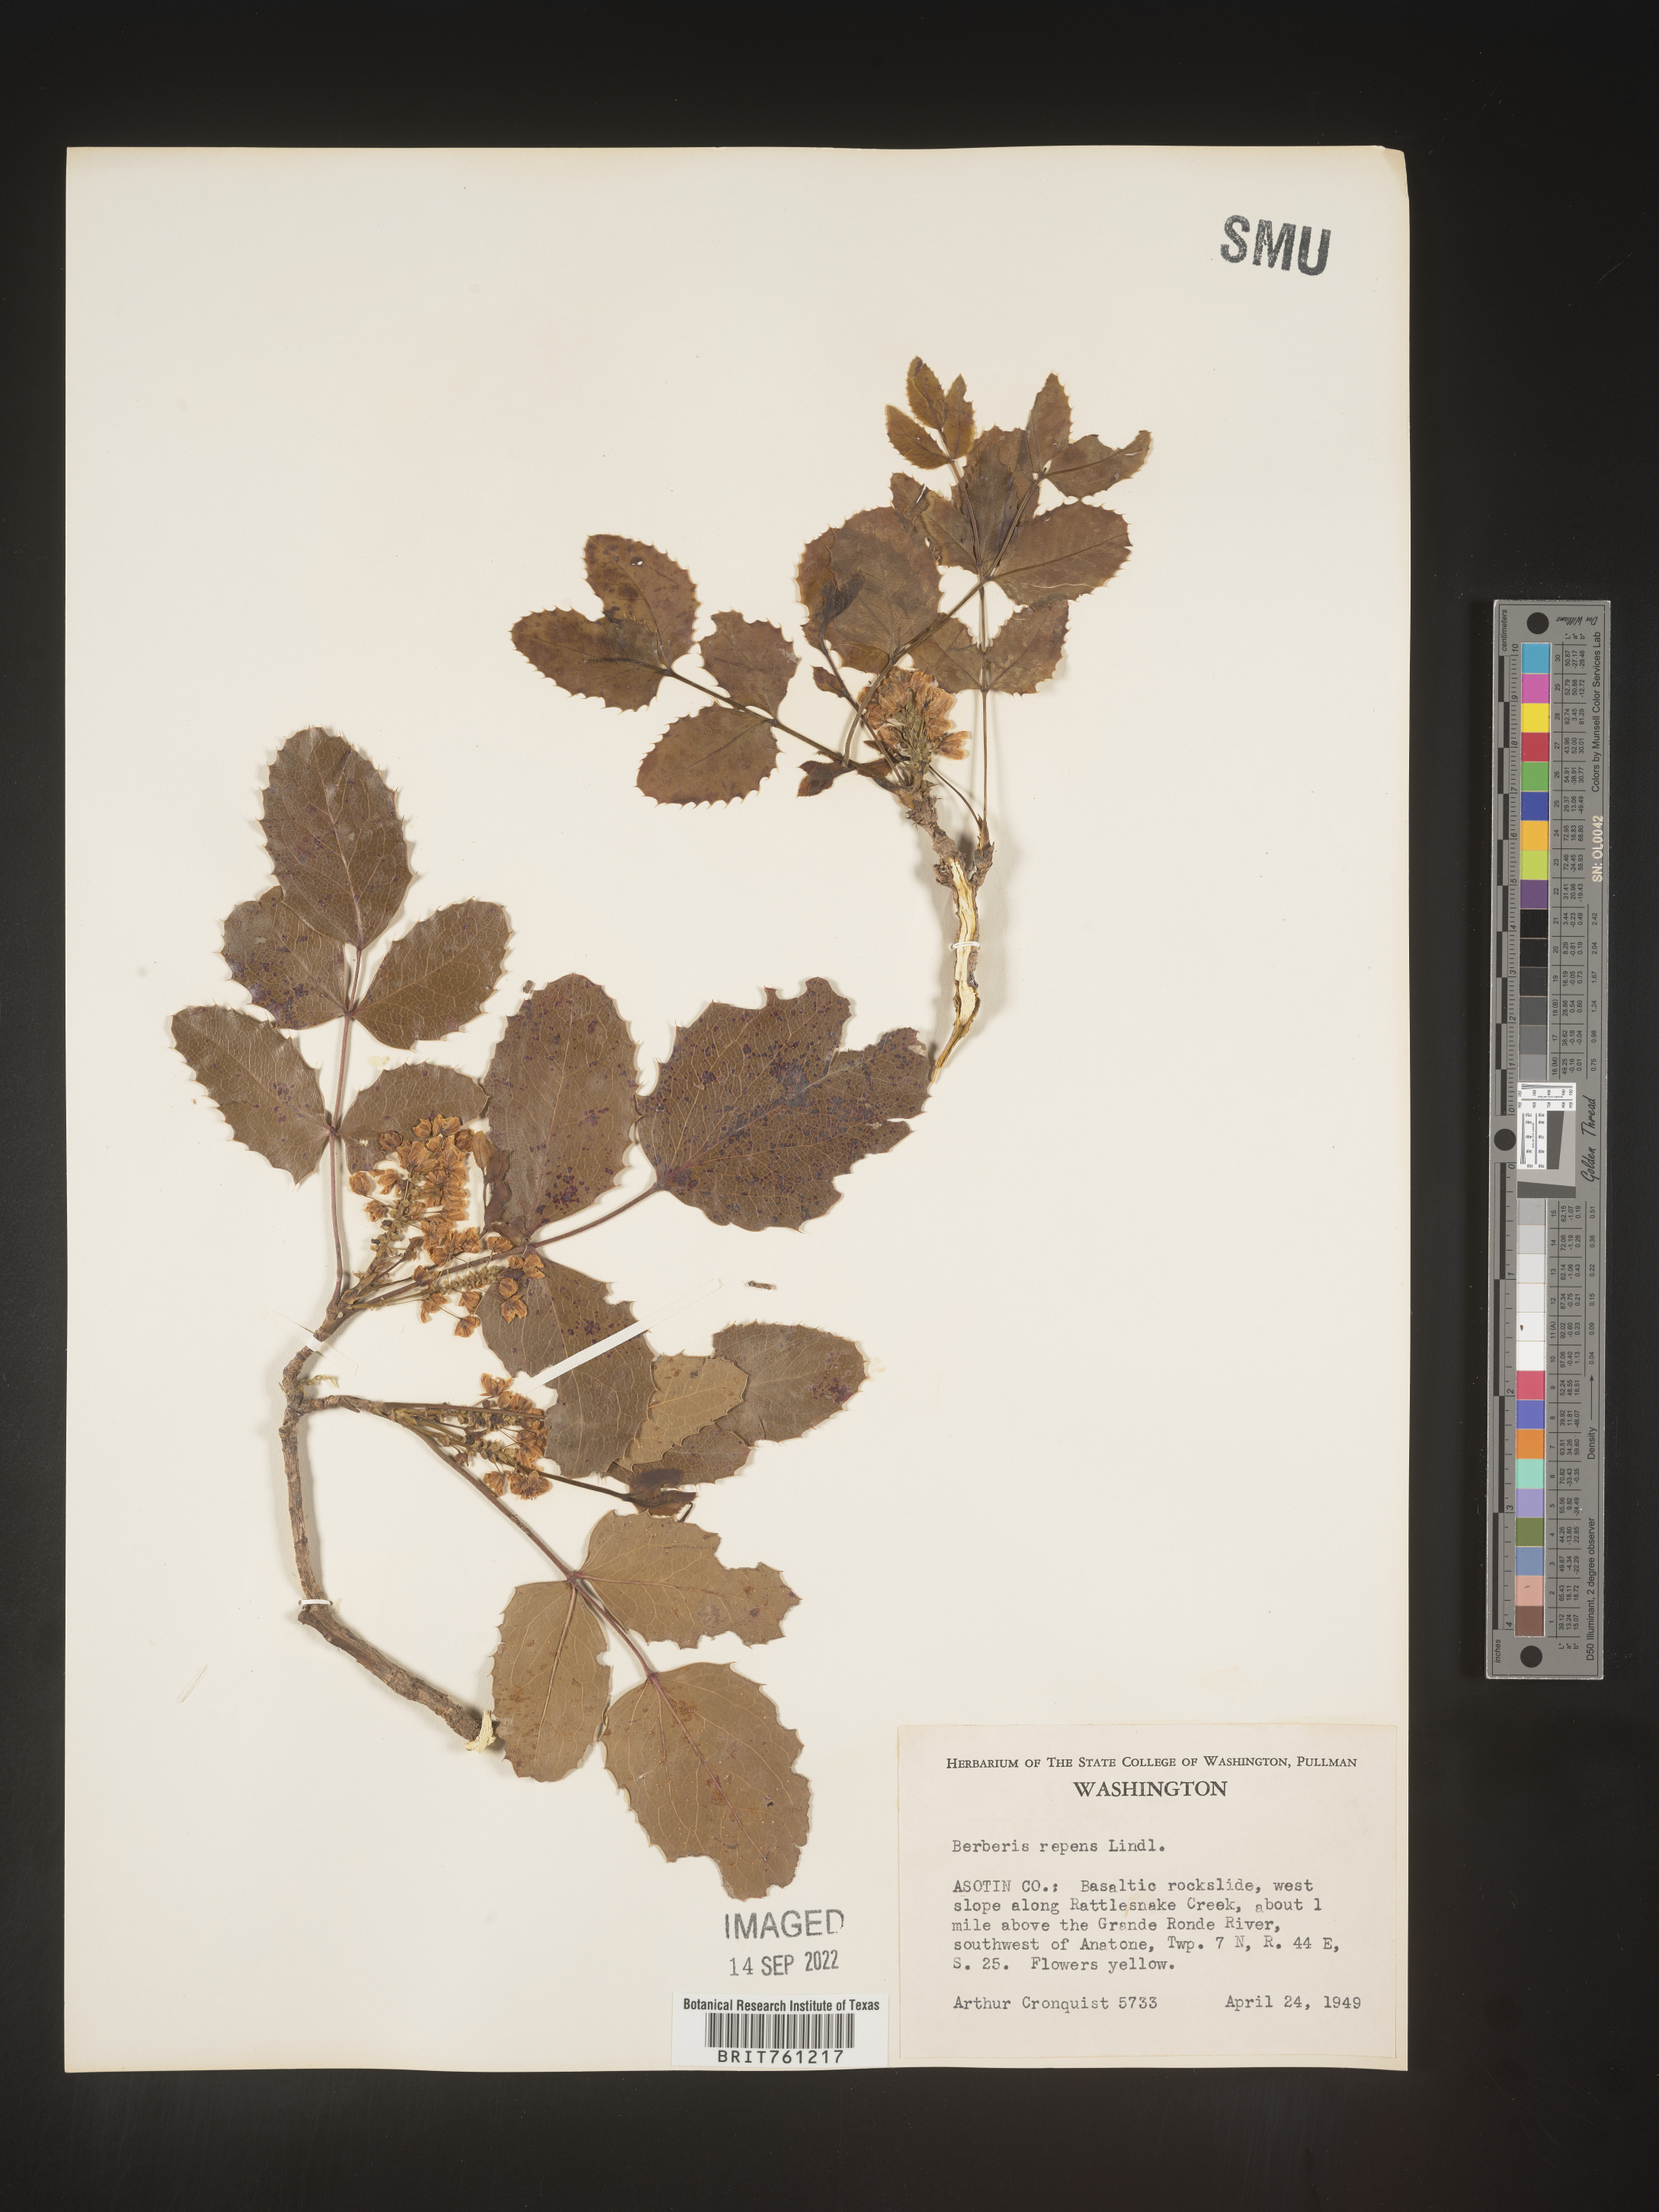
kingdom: Plantae
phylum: Tracheophyta
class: Magnoliopsida
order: Ranunculales
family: Berberidaceae
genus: Mahonia
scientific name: Mahonia repens
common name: Creeping oregon-grape
